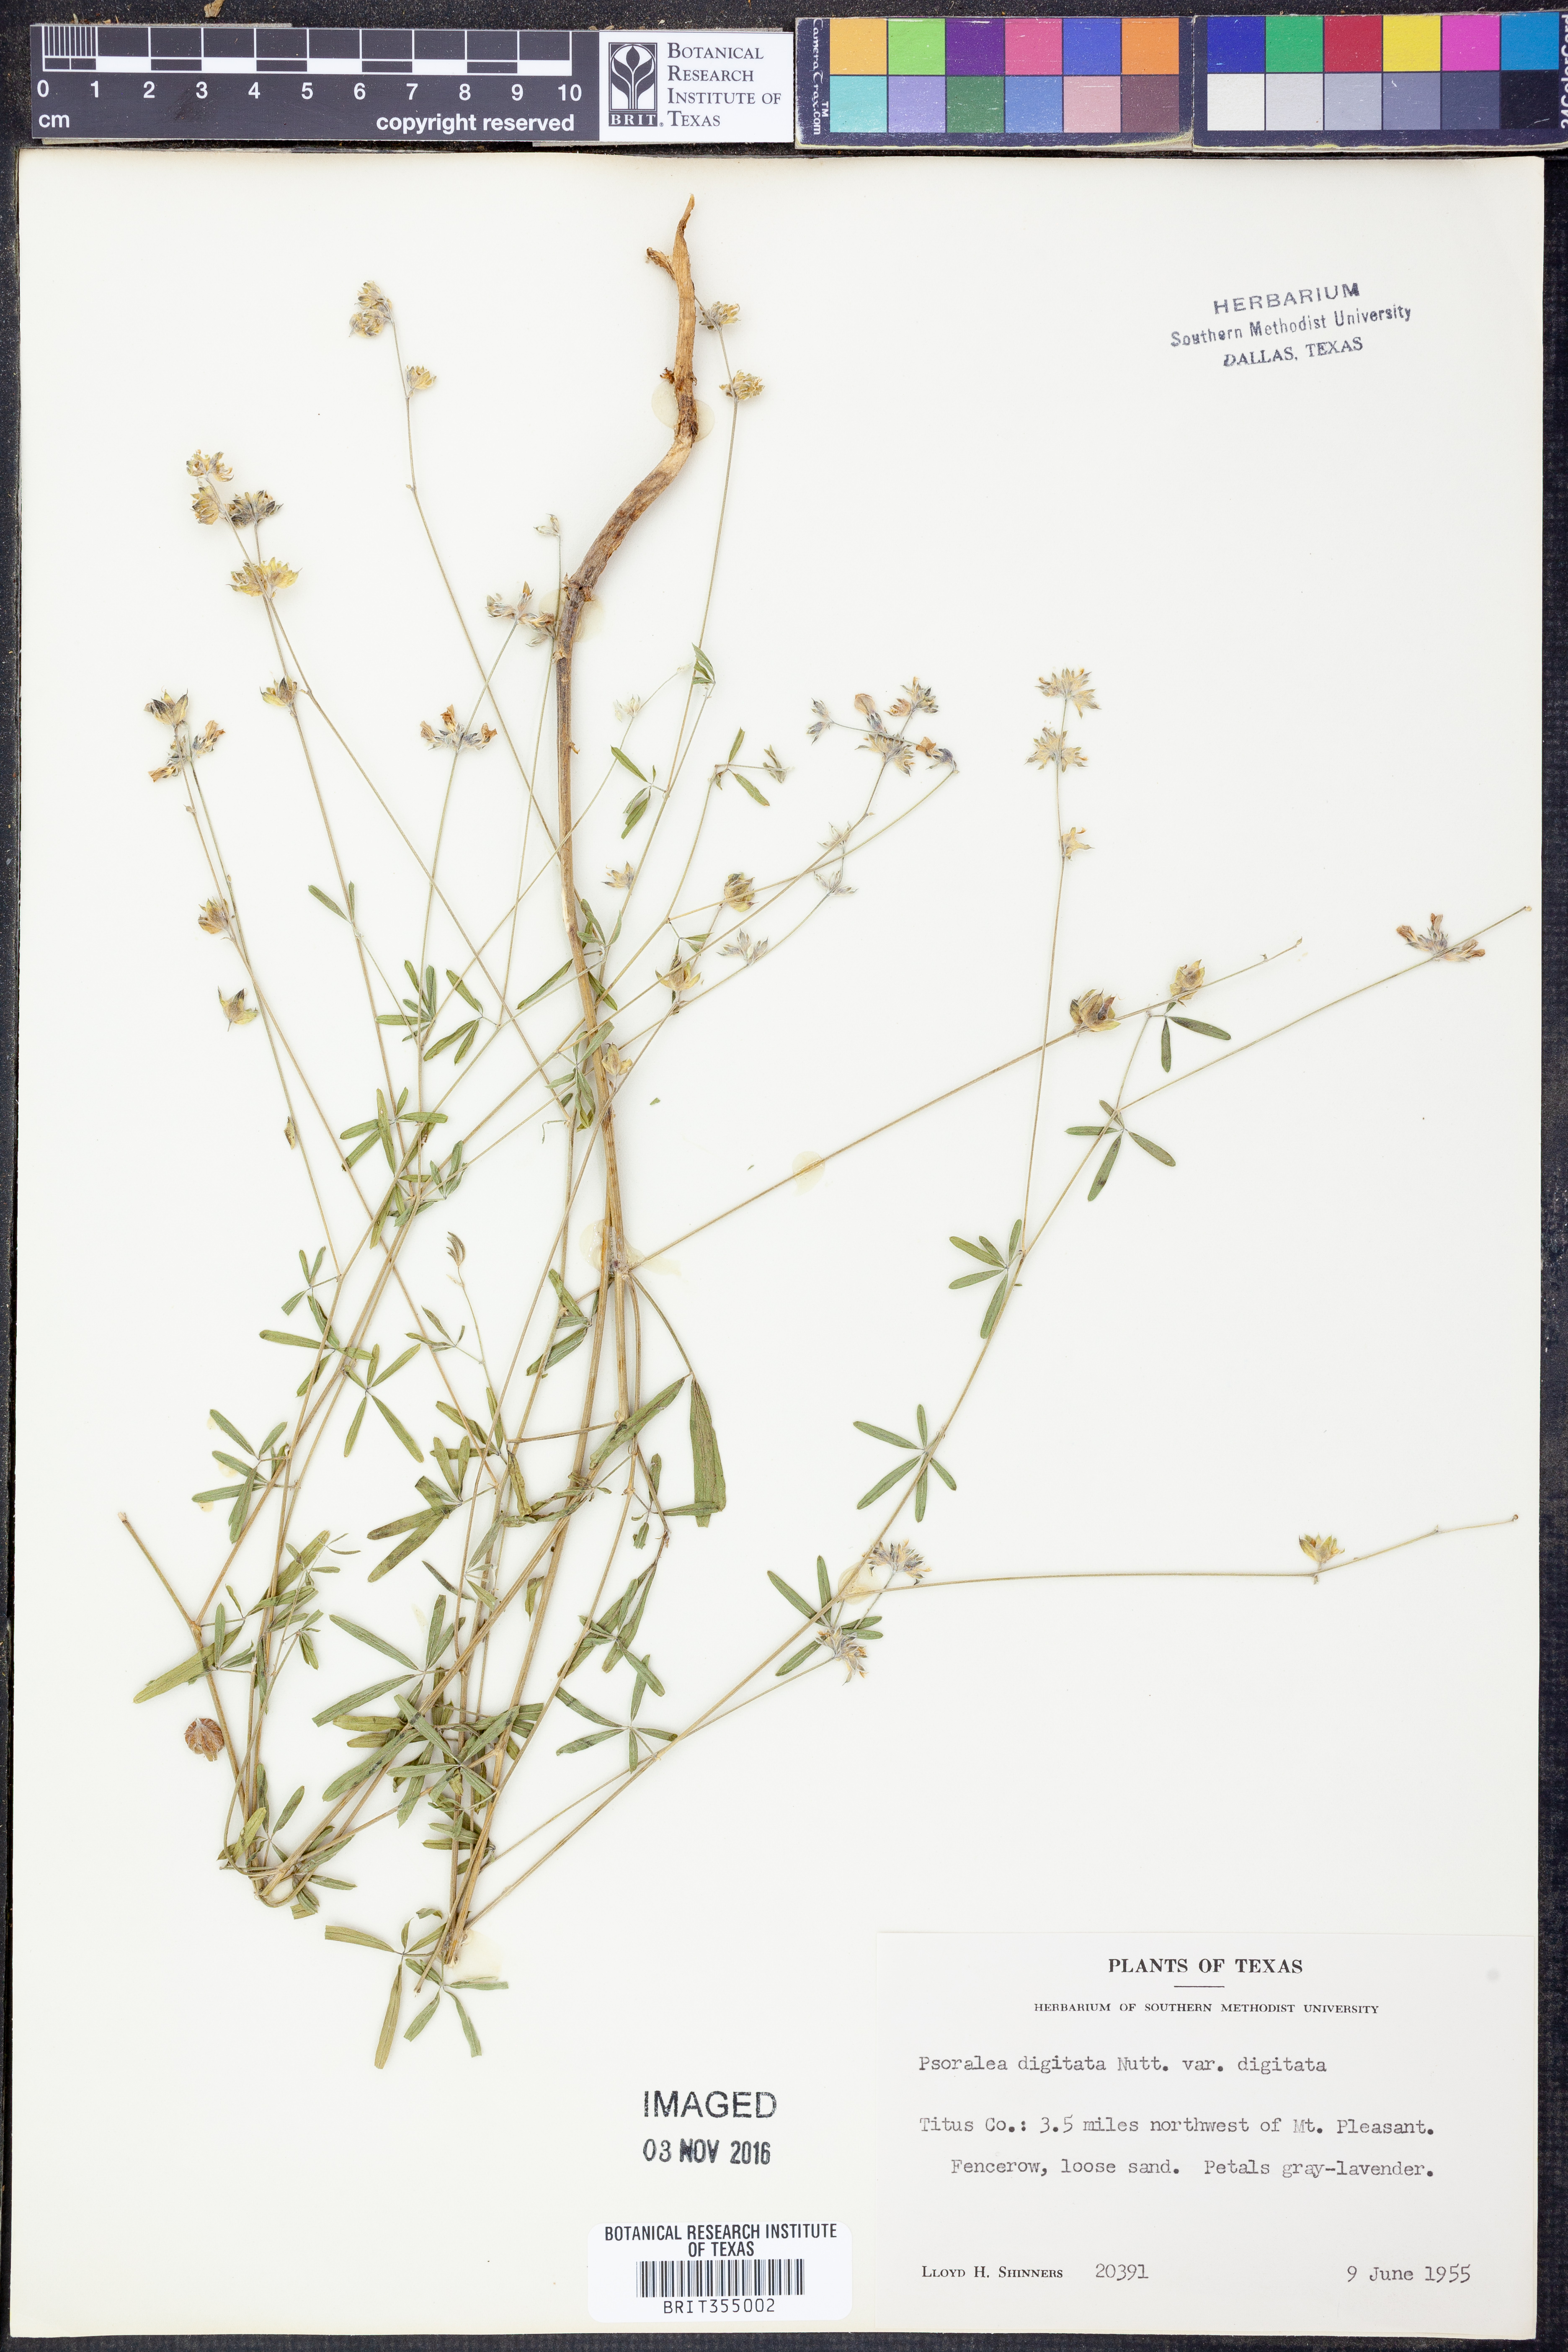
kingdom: Plantae
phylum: Tracheophyta
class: Magnoliopsida
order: Fabales
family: Fabaceae
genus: Pediomelum
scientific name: Pediomelum digitatum
